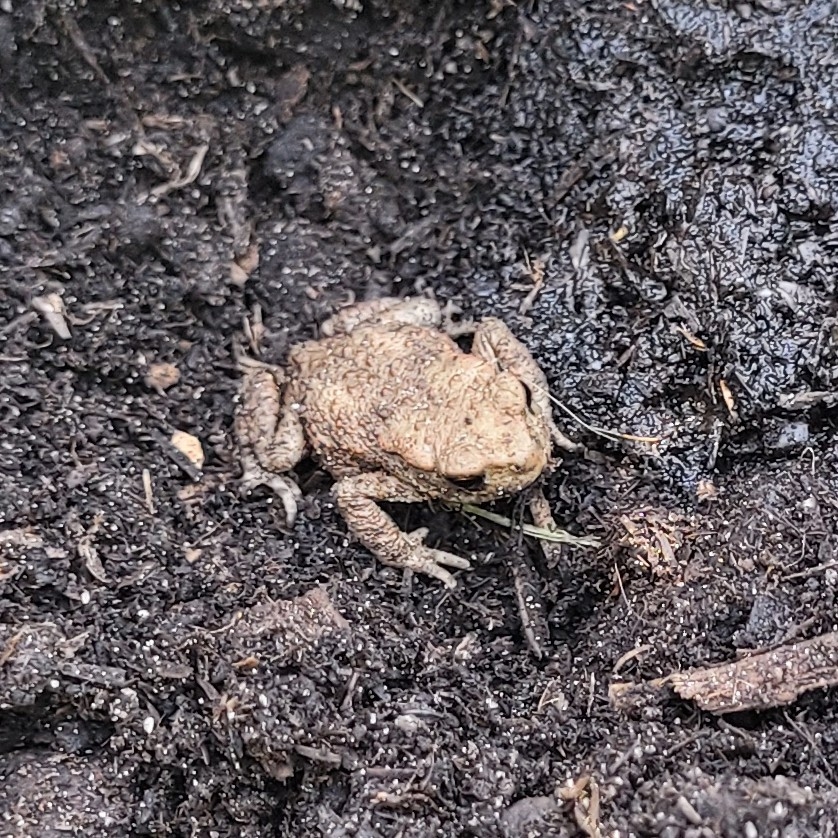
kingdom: Animalia
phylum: Chordata
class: Amphibia
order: Anura
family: Bufonidae
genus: Bufo
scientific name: Bufo bufo
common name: Skrubtudse
